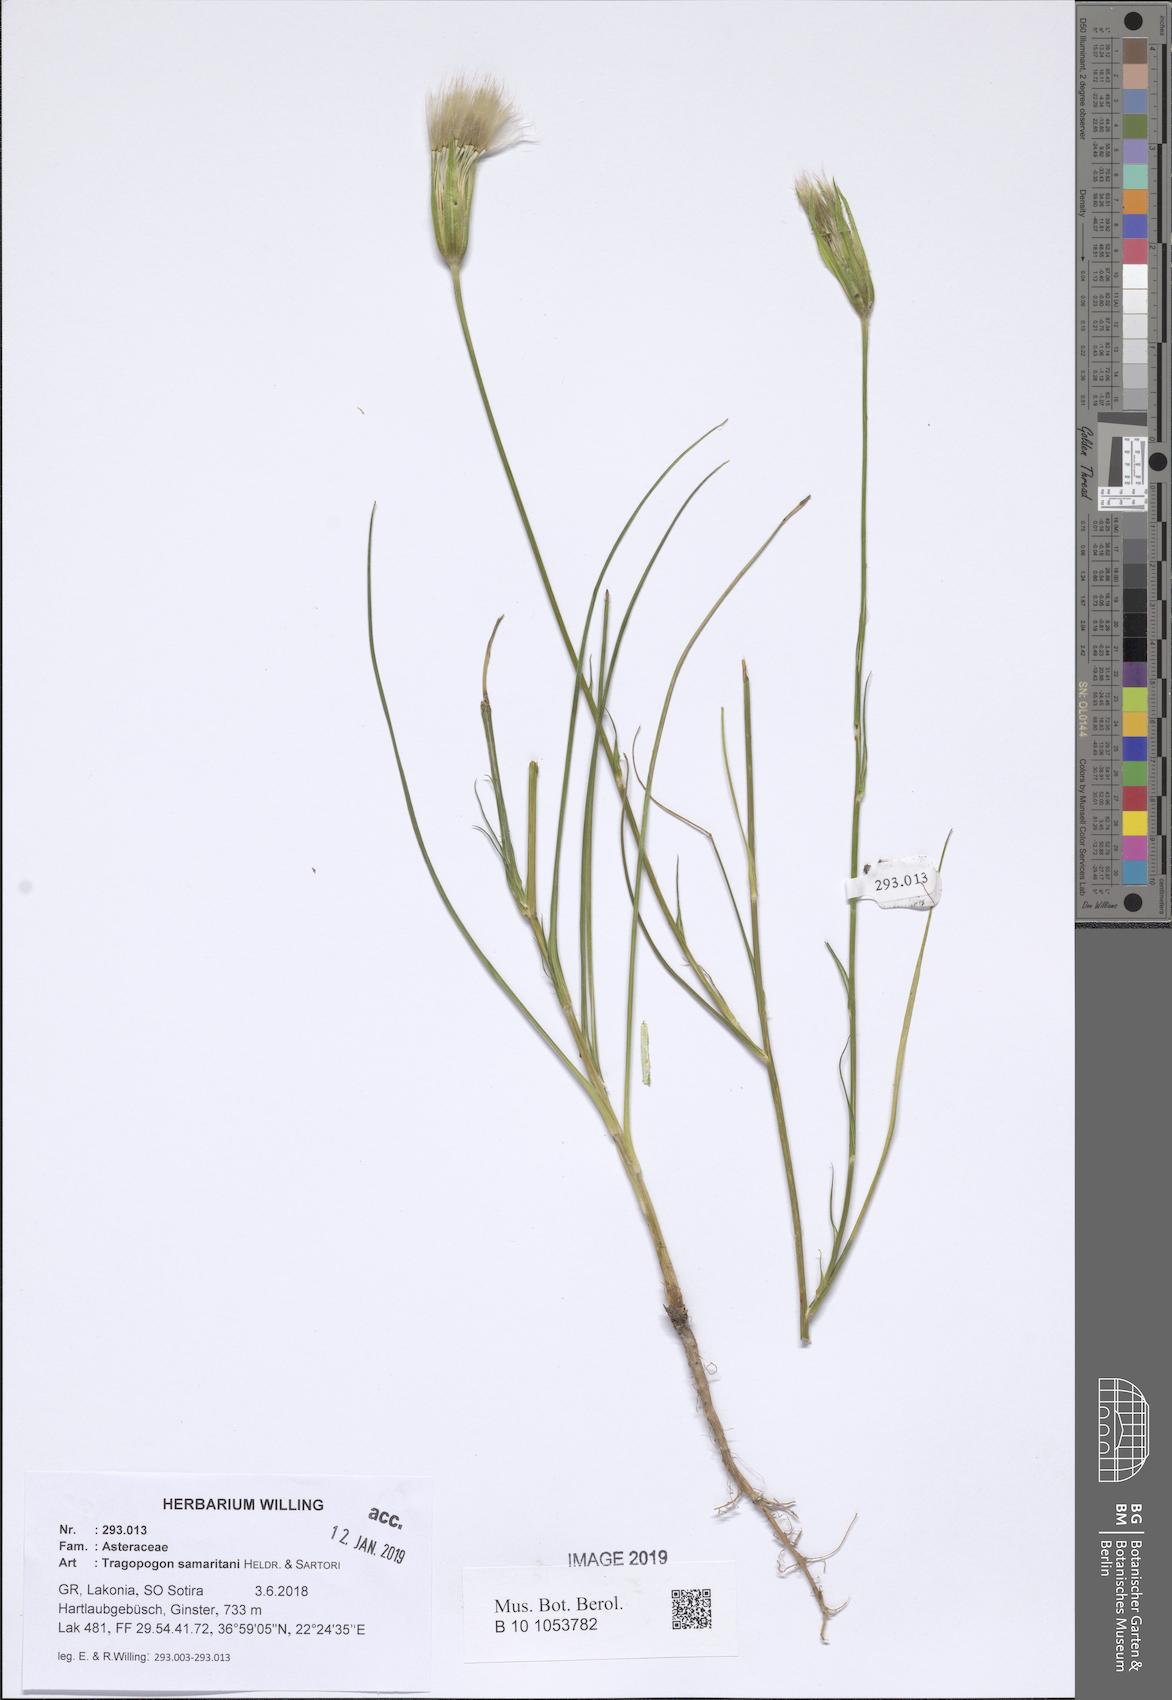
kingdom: Plantae
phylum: Tracheophyta
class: Magnoliopsida
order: Asterales
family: Asteraceae
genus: Tragopogon
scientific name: Tragopogon samaritani
